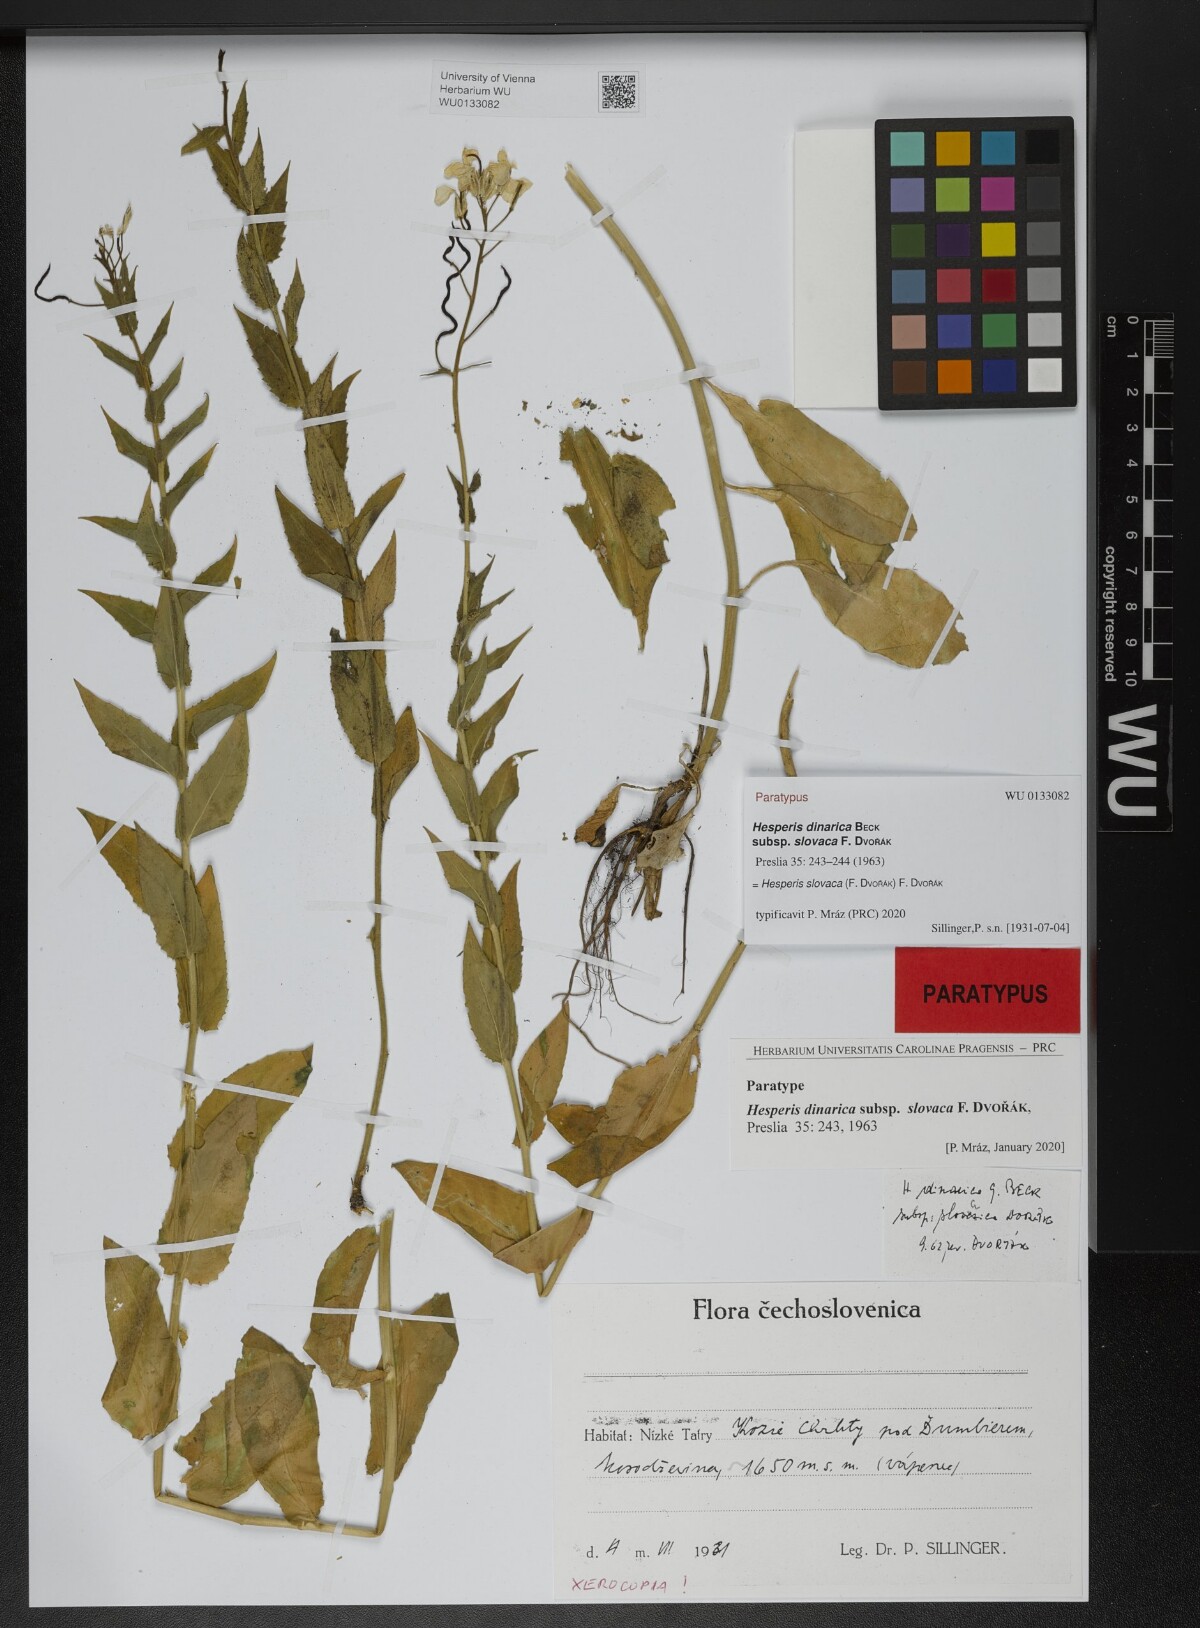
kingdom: Plantae
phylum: Tracheophyta
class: Magnoliopsida
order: Brassicales
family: Brassicaceae
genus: Hesperis
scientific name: Hesperis dinarica
